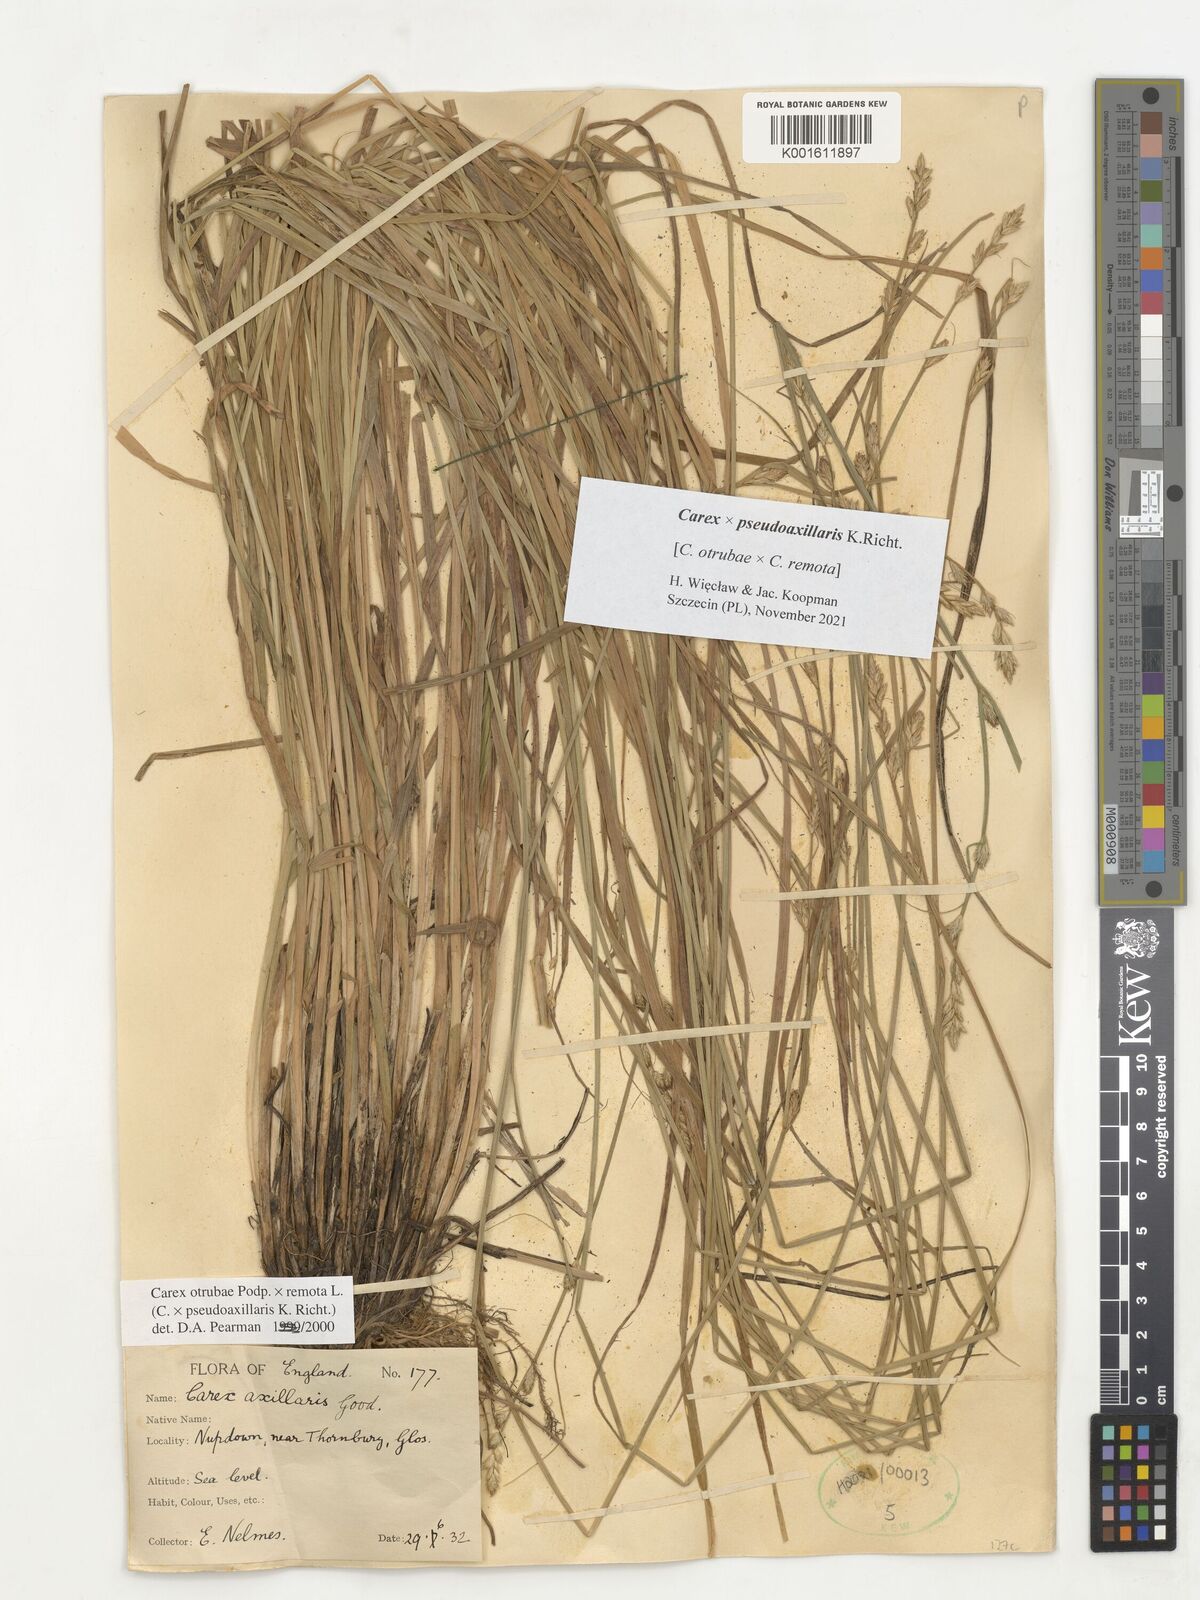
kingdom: Plantae
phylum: Tracheophyta
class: Liliopsida
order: Poales
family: Cyperaceae
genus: Carex
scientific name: Carex pseudoaxillaris
